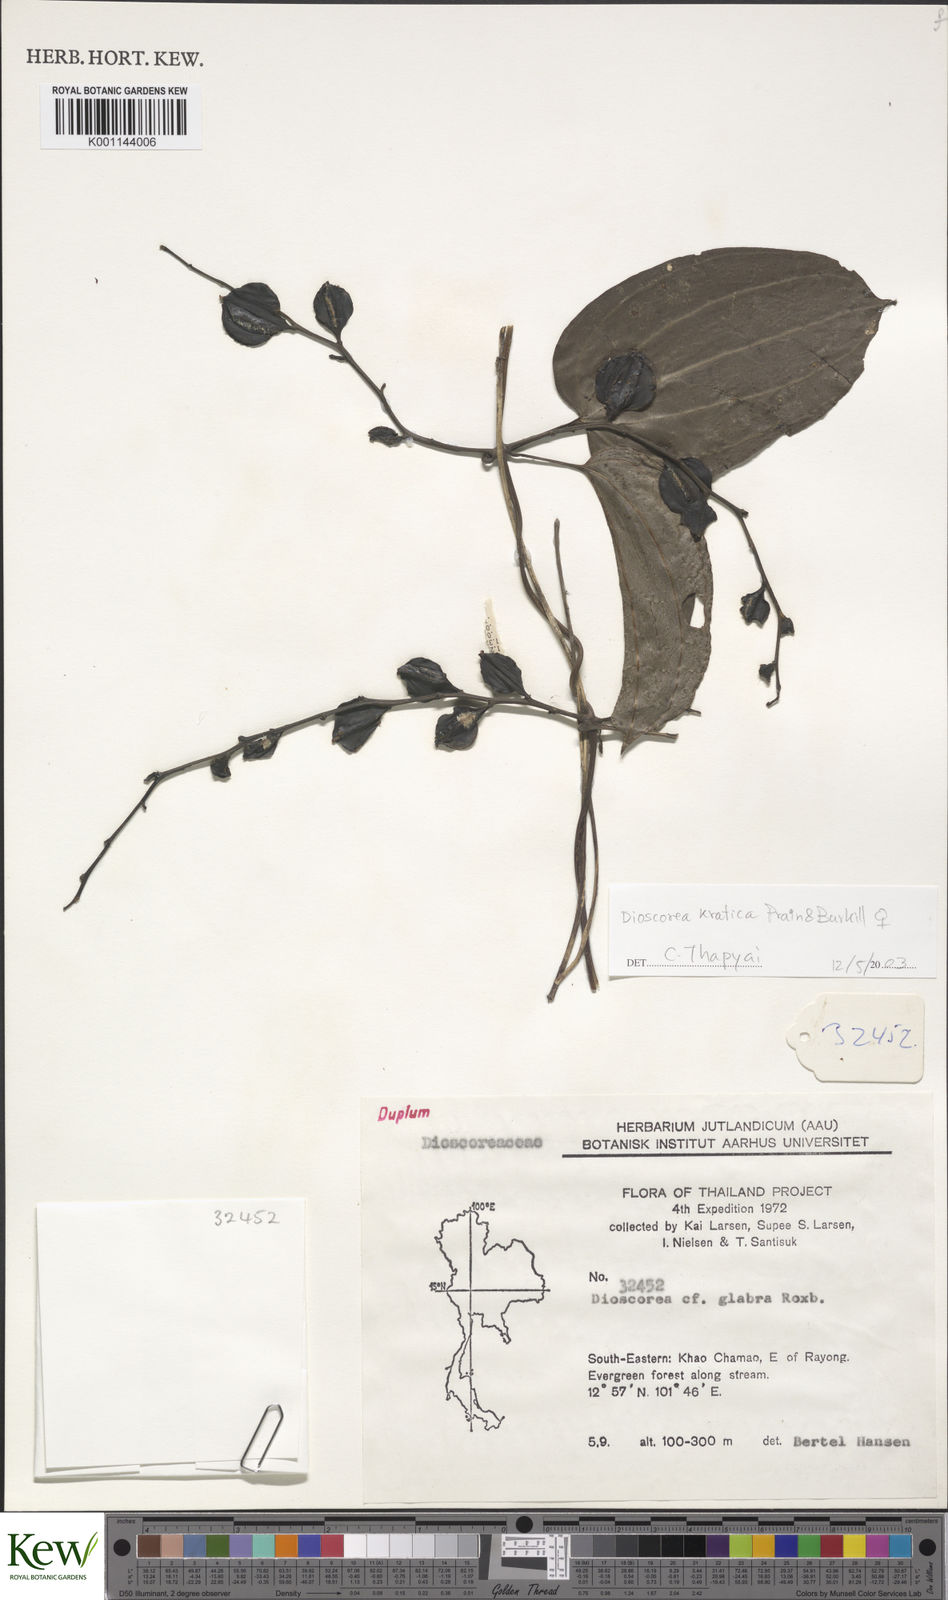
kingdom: Plantae
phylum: Tracheophyta
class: Liliopsida
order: Dioscoreales
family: Dioscoreaceae
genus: Dioscorea
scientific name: Dioscorea kratica
